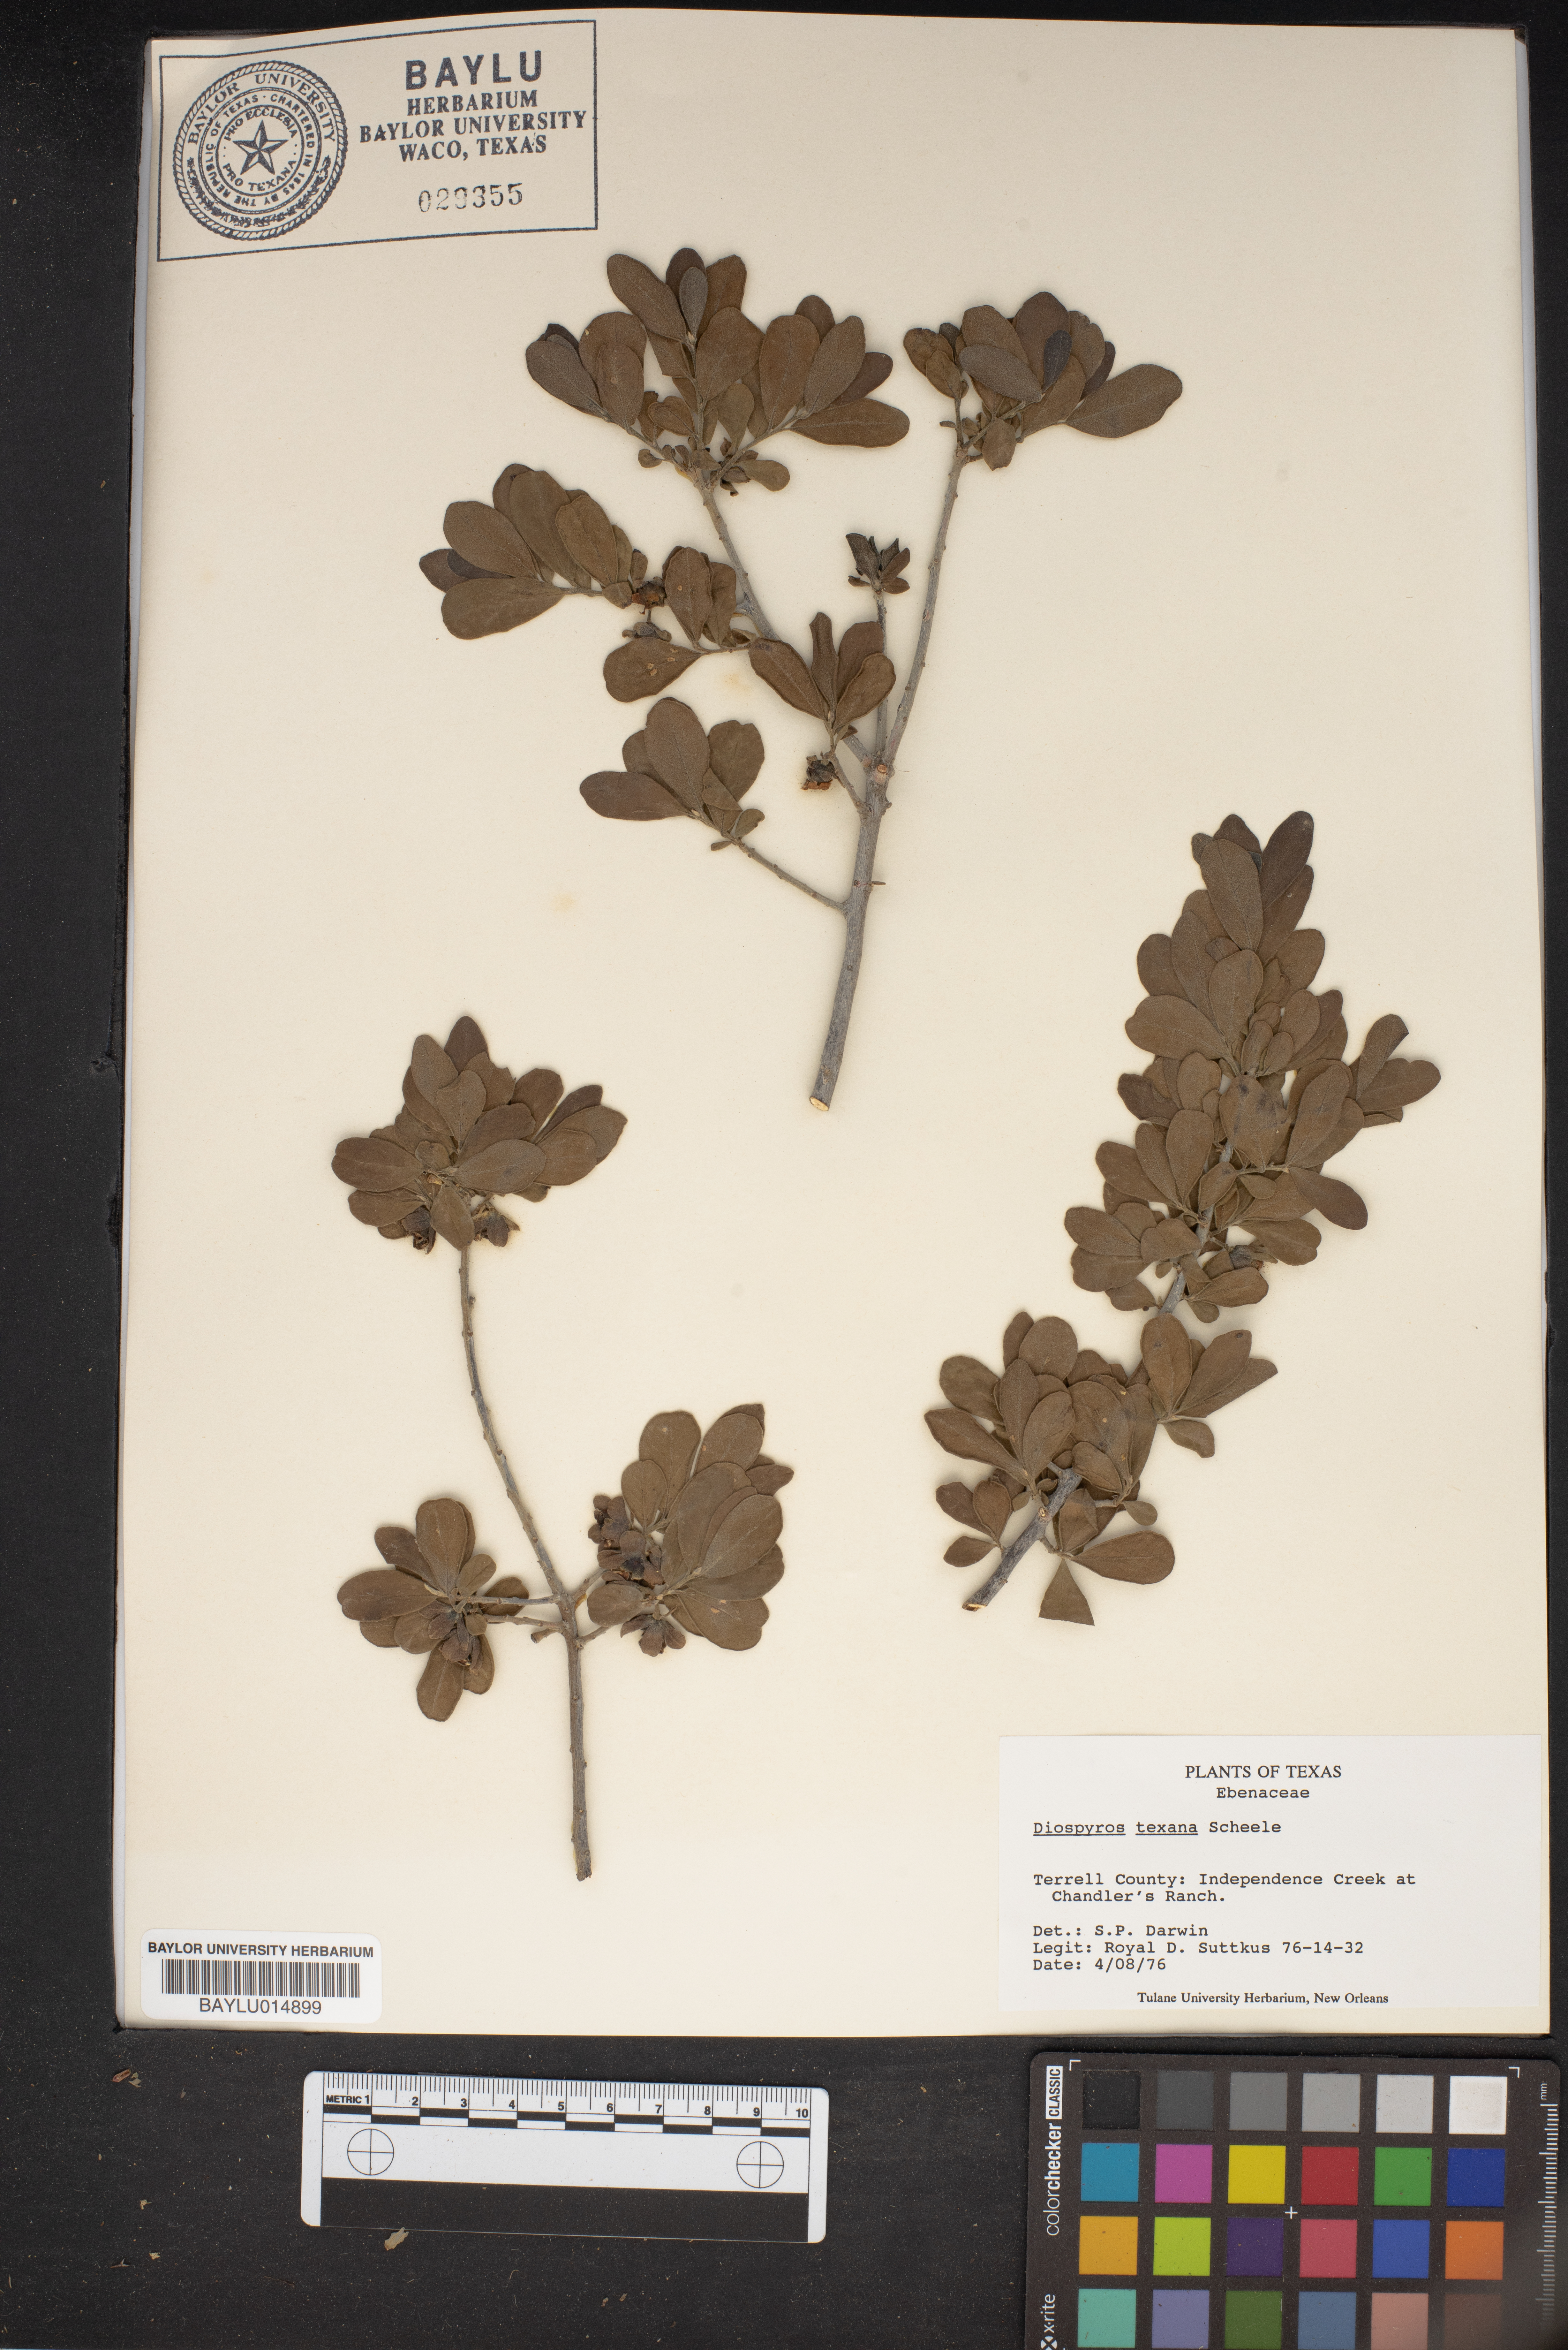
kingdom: Plantae
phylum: Tracheophyta
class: Magnoliopsida
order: Ericales
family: Ebenaceae
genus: Diospyros
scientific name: Diospyros texana
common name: Texas persimmon
